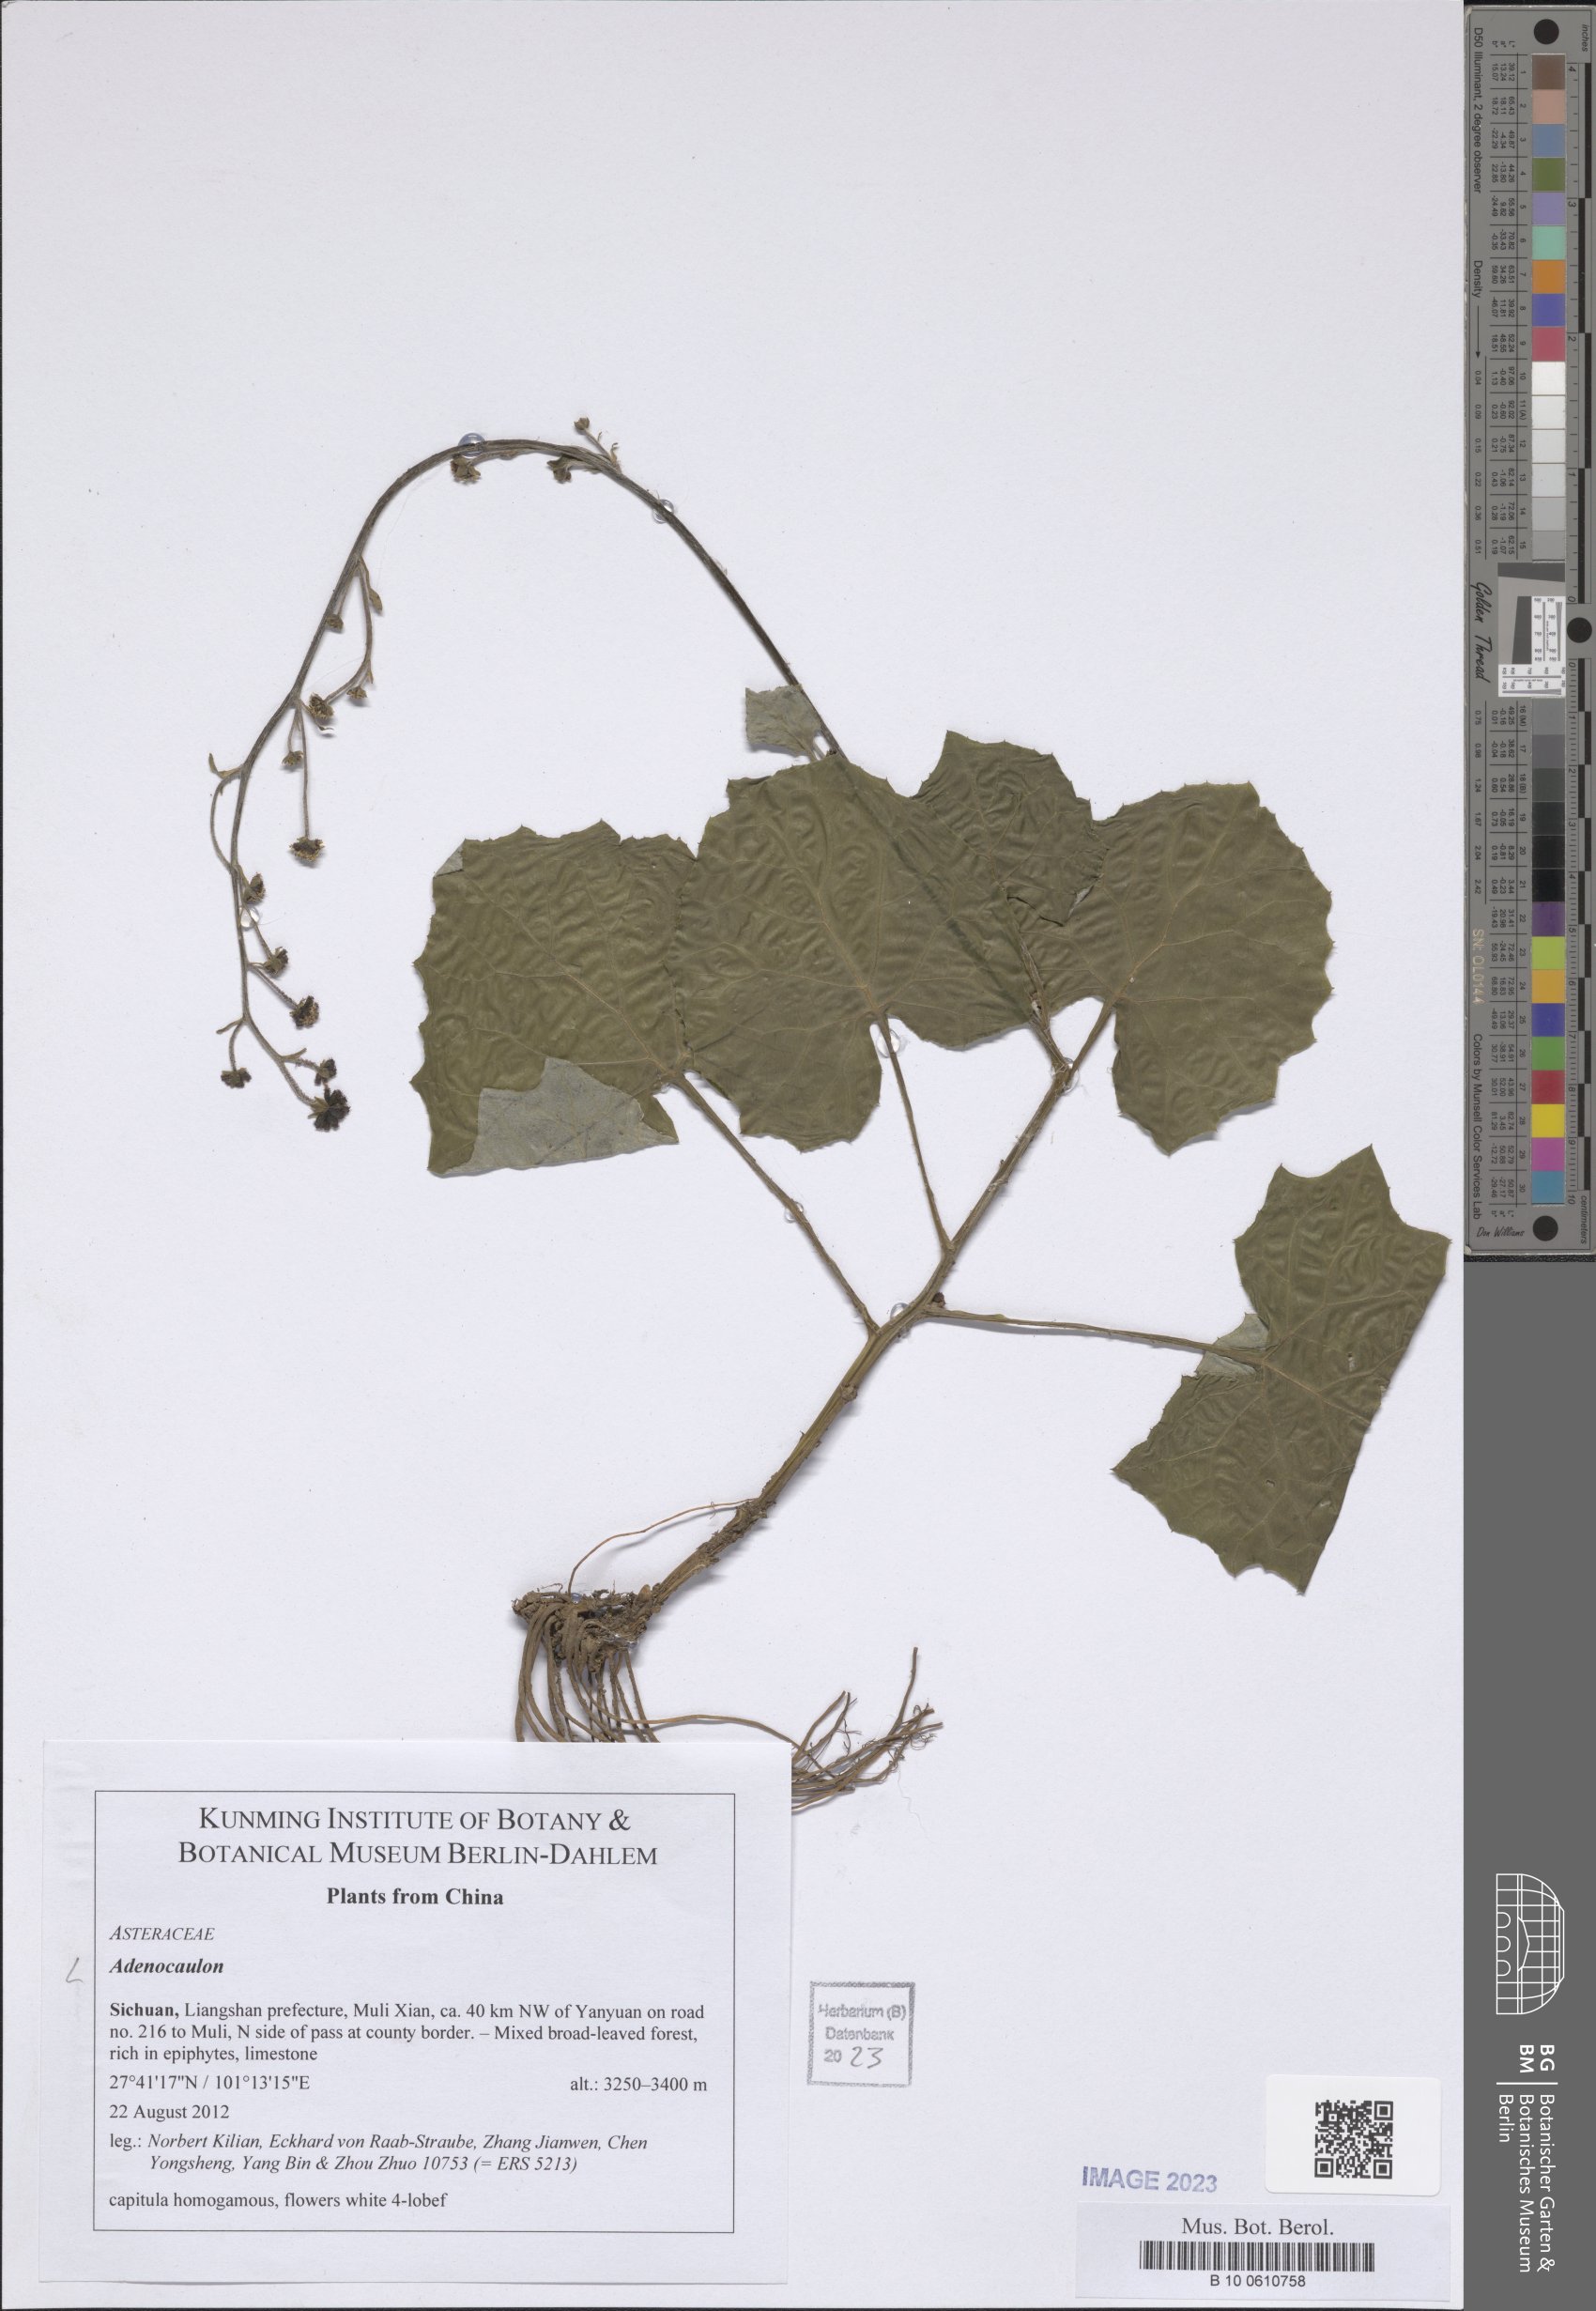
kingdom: Plantae
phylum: Tracheophyta
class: Magnoliopsida
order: Asterales
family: Asteraceae
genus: Adenocaulon
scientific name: Adenocaulon
